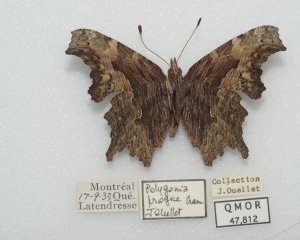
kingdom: Animalia
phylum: Arthropoda
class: Insecta
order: Lepidoptera
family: Nymphalidae
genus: Polygonia
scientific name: Polygonia progne
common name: Gray Comma
